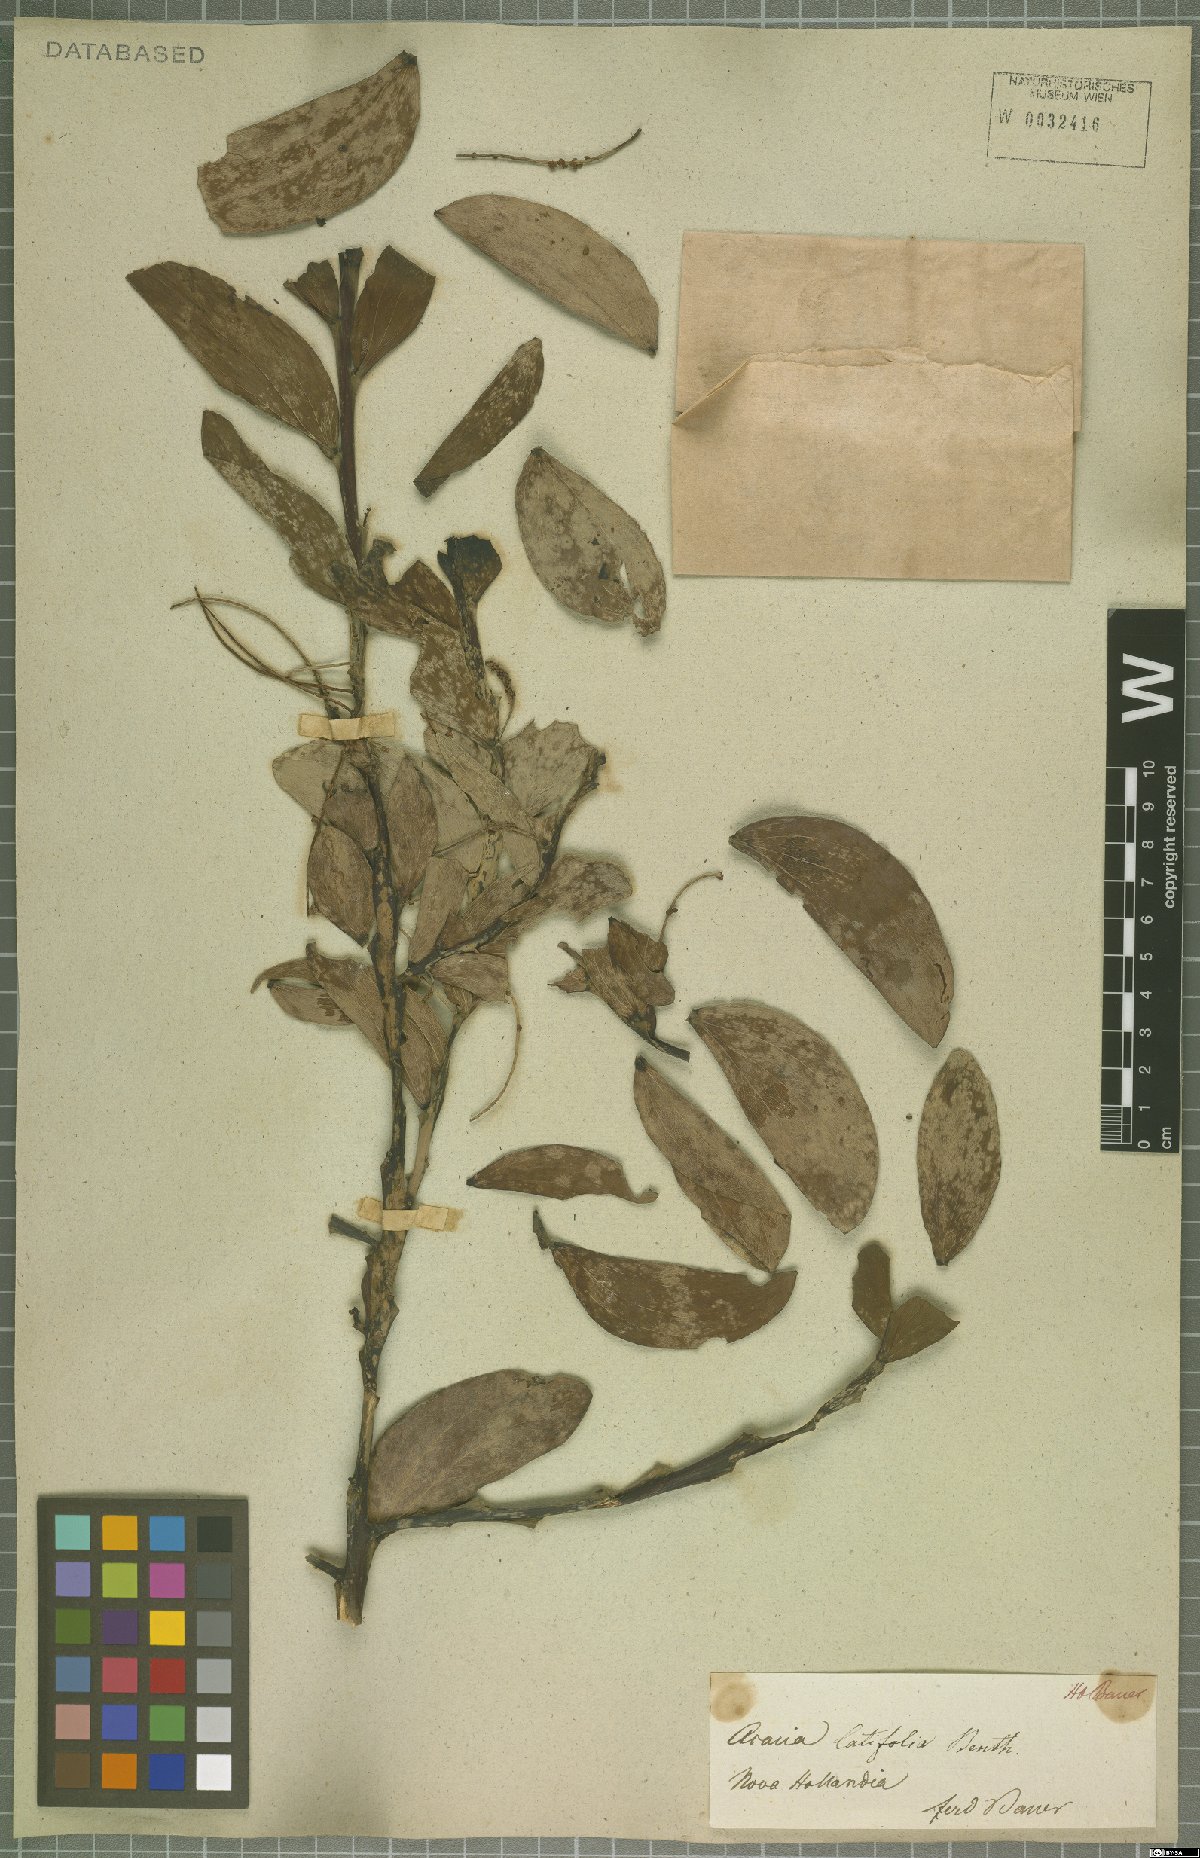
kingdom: Plantae
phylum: Tracheophyta
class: Magnoliopsida
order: Fabales
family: Fabaceae
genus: Acacia
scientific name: Acacia latifolia
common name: Broadleaf acacia
